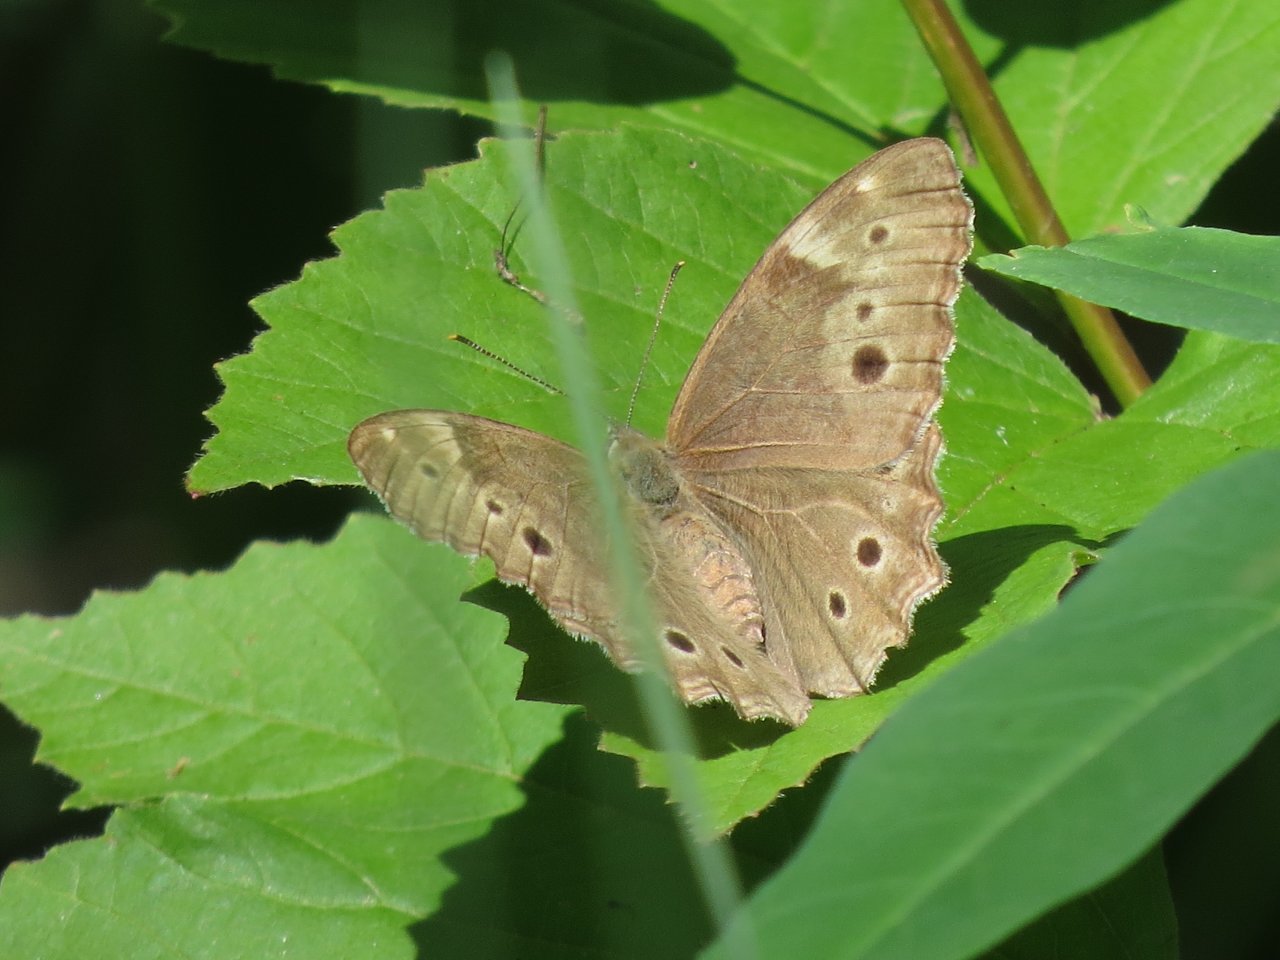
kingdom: Animalia
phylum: Arthropoda
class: Insecta
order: Lepidoptera
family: Nymphalidae
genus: Lethe
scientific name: Lethe anthedon
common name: Northern Pearly-Eye
